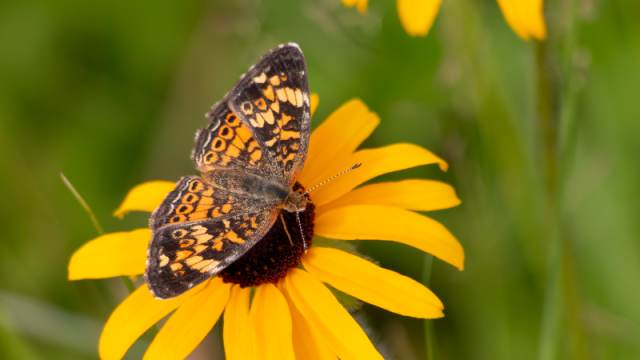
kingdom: Animalia
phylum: Arthropoda
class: Insecta
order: Lepidoptera
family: Nymphalidae
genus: Phyciodes
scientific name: Phyciodes tharos
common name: Pearl Crescent
